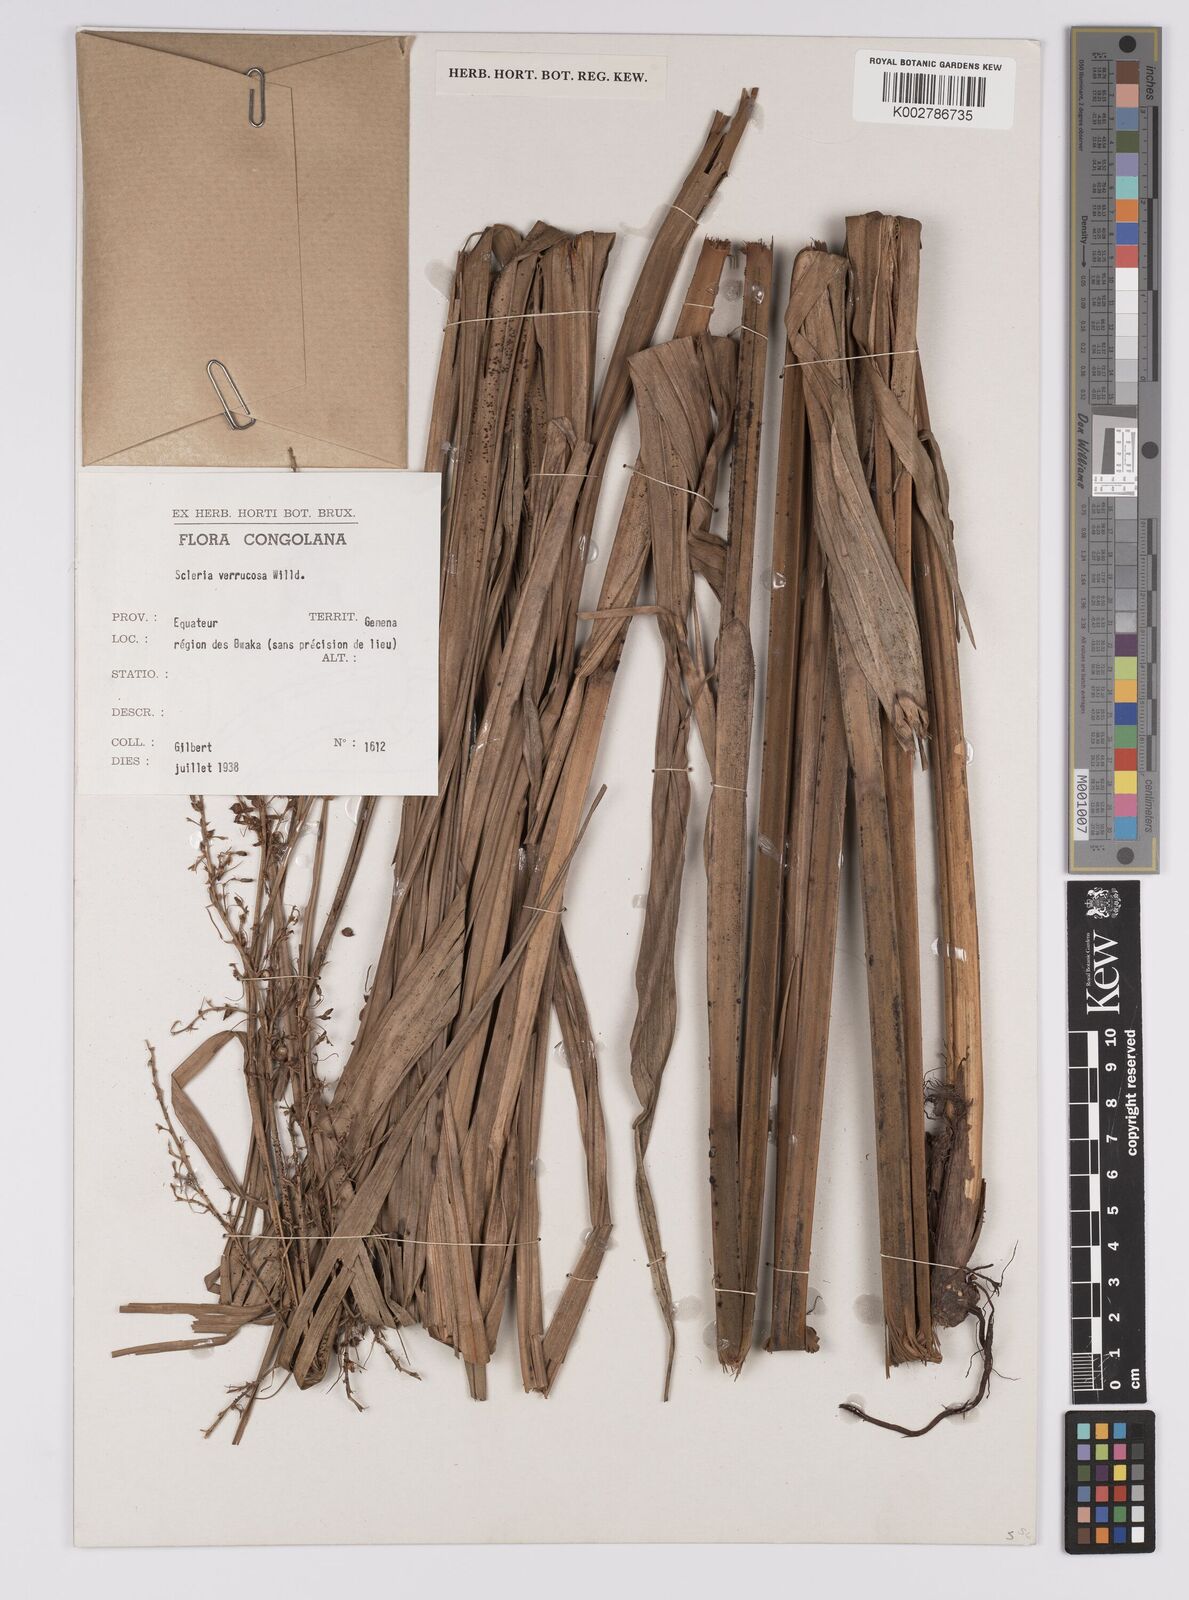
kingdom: Plantae
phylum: Tracheophyta
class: Liliopsida
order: Poales
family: Cyperaceae
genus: Scleria
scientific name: Scleria verrucosa
